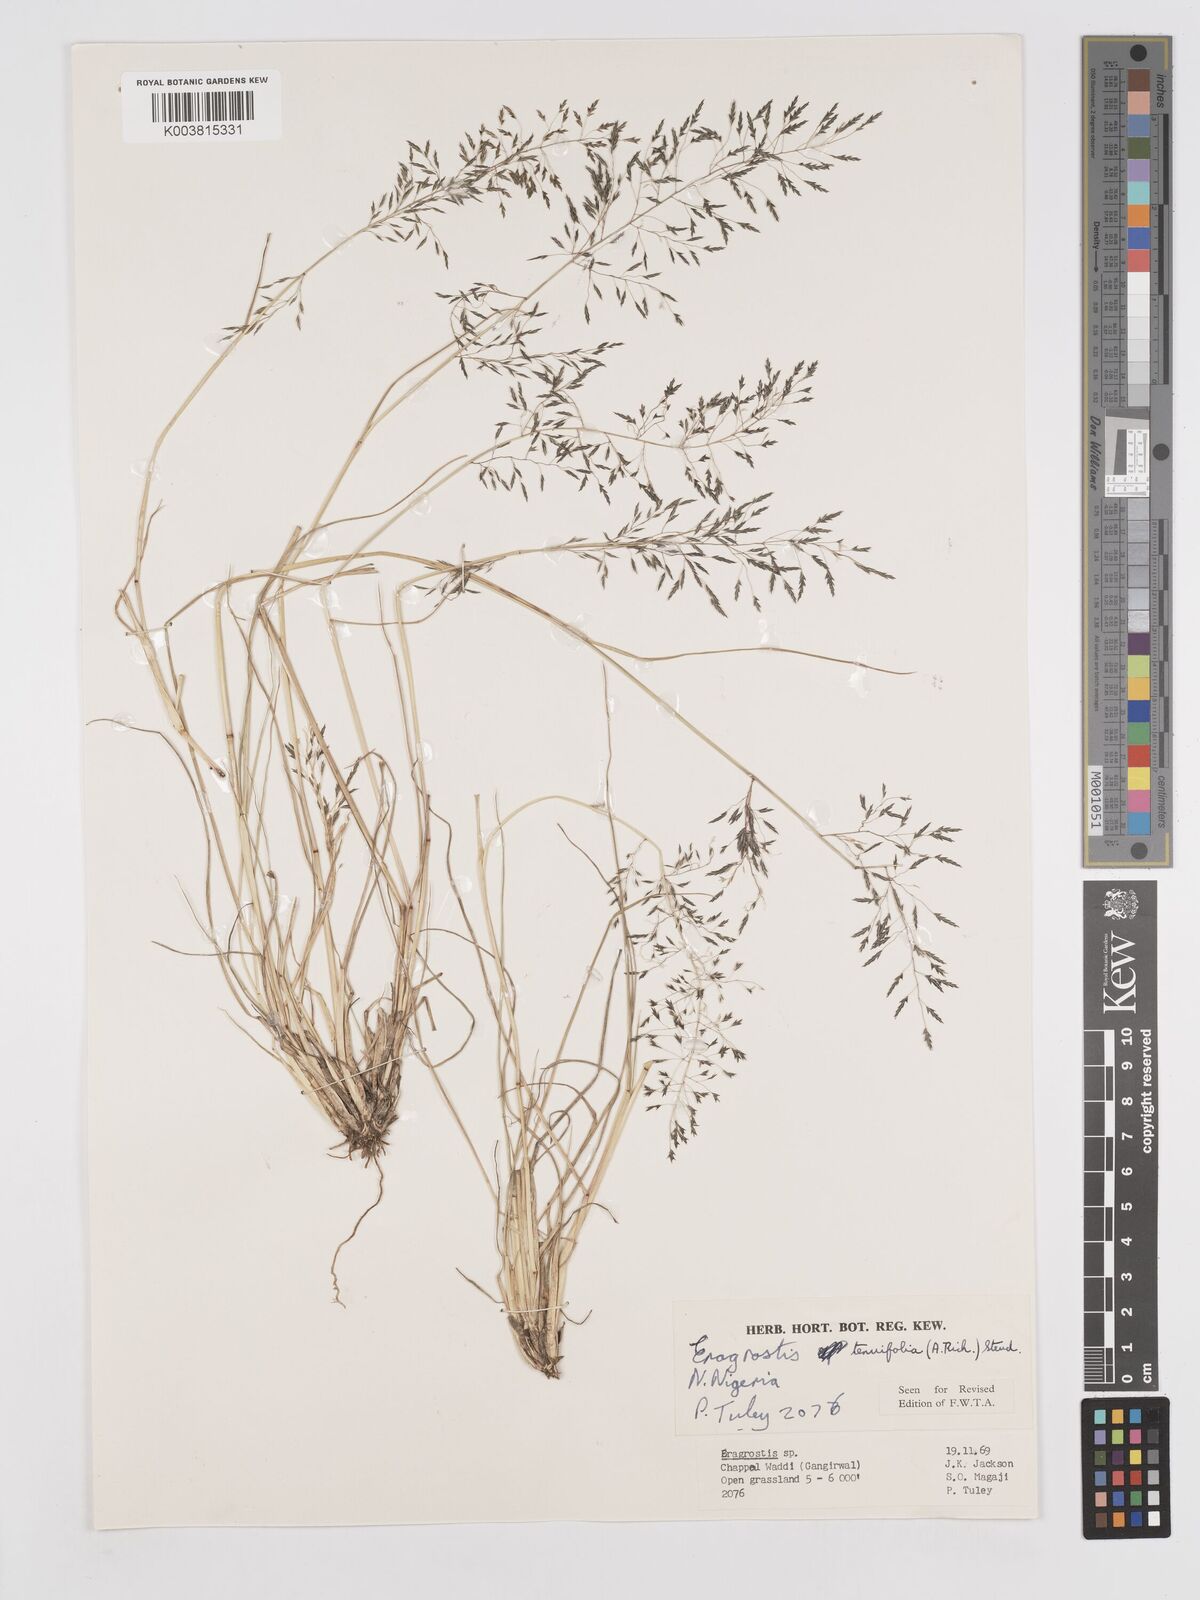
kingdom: Plantae
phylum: Tracheophyta
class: Liliopsida
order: Poales
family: Poaceae
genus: Eragrostis
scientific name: Eragrostis tenuifolia
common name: Elastic grass
